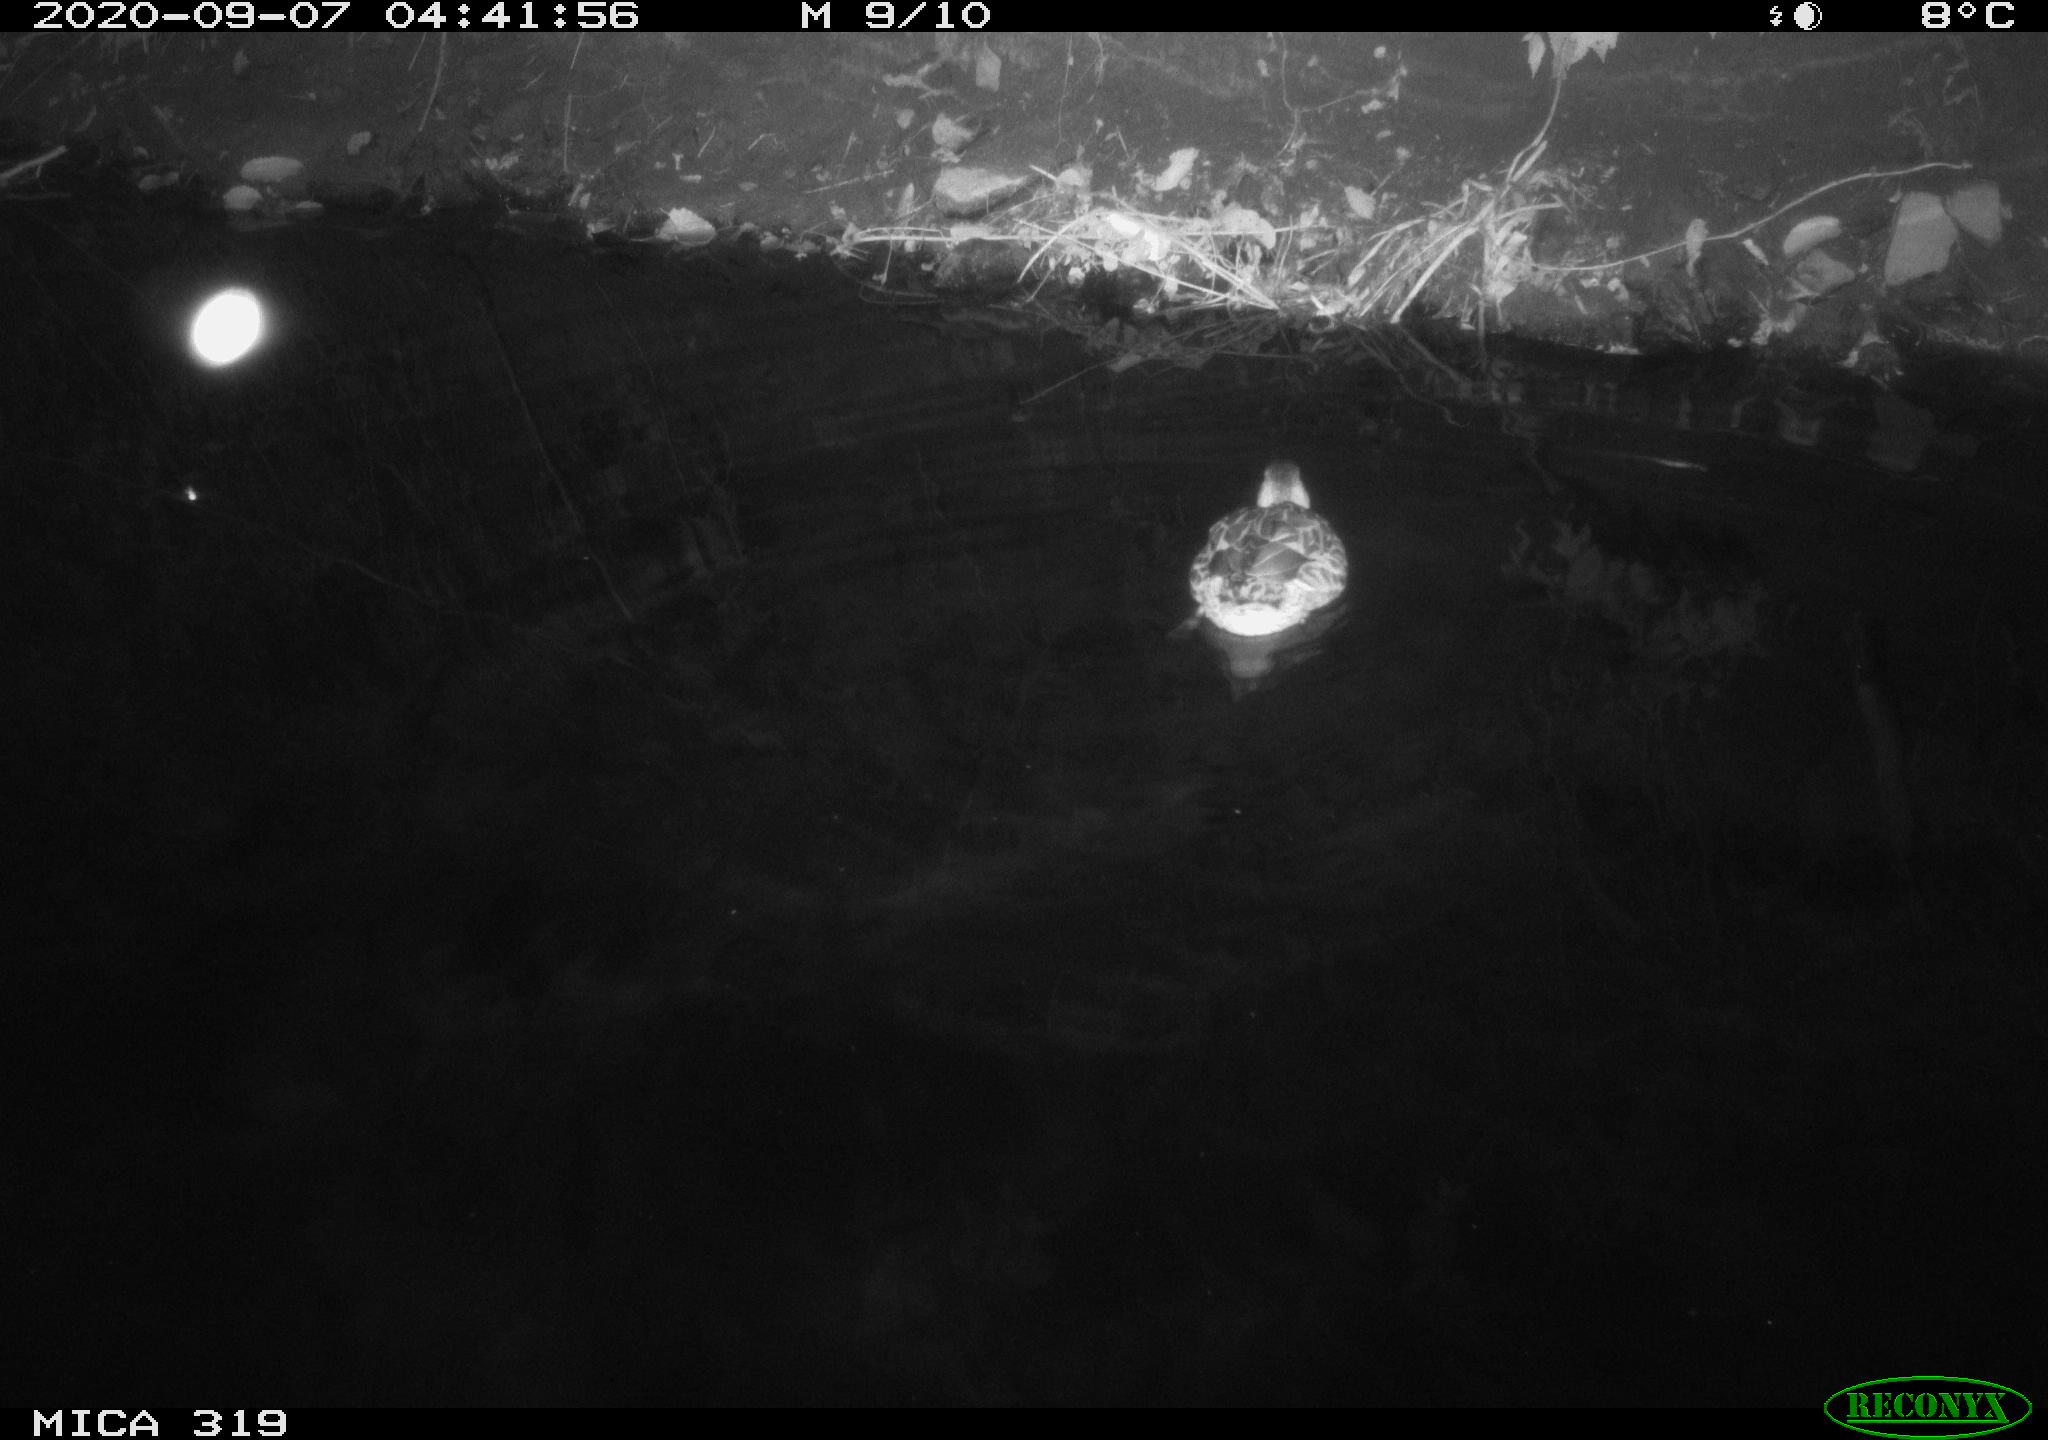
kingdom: Animalia
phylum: Chordata
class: Aves
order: Anseriformes
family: Anatidae
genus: Anas
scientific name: Anas platyrhynchos
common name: Mallard
